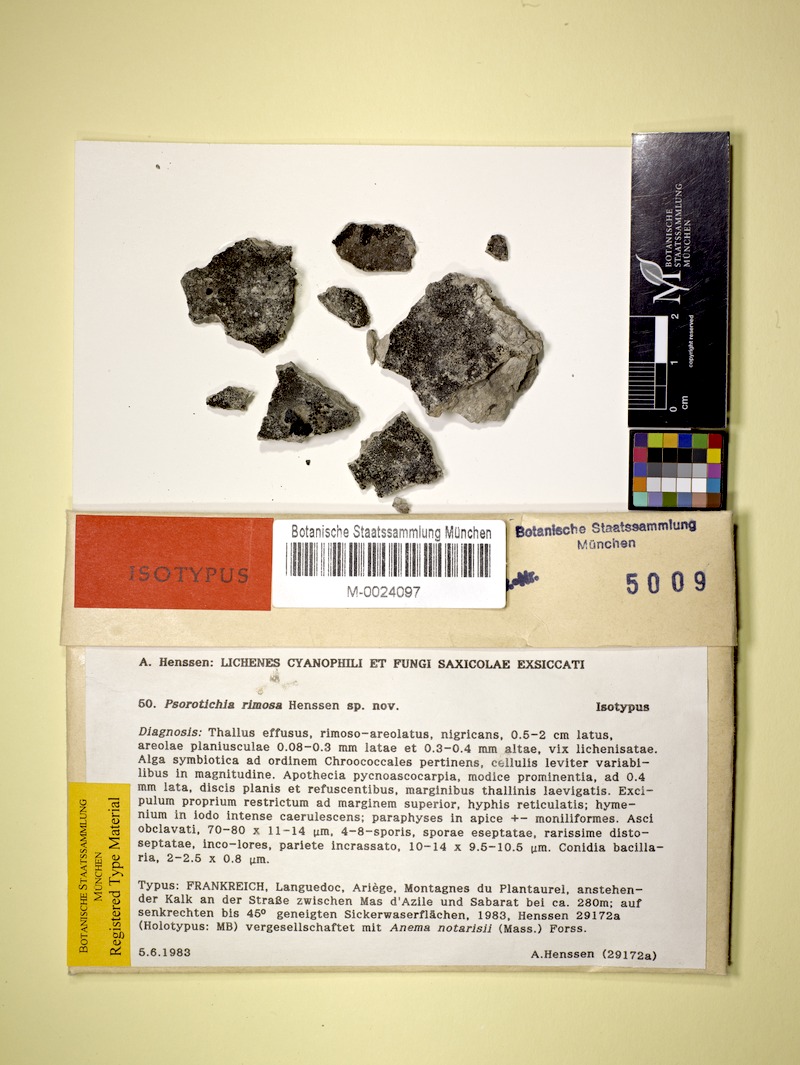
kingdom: Fungi
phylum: Ascomycota
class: Lichinomycetes
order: Lichinales
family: Lichinaceae
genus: Psorotichia
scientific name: Psorotichia rimosa
